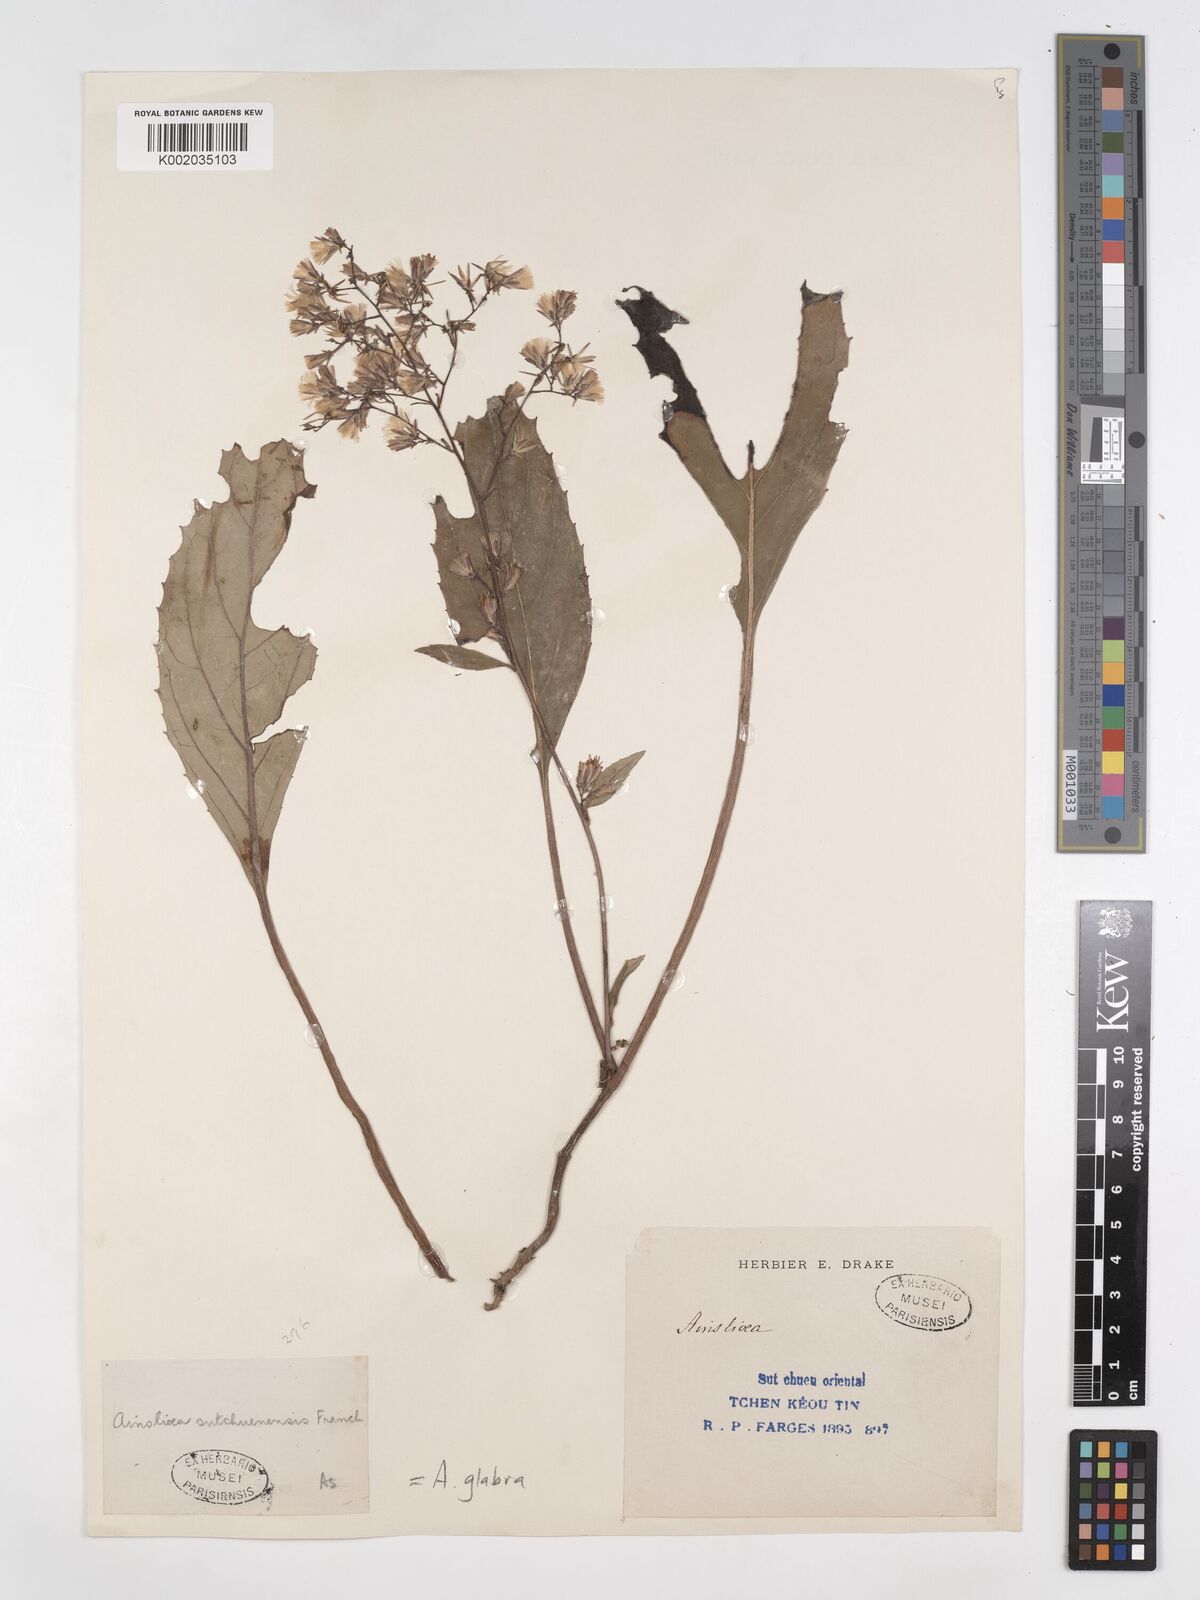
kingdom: Plantae
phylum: Tracheophyta
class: Magnoliopsida
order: Asterales
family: Asteraceae
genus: Ainsliaea
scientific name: Ainsliaea glabra
